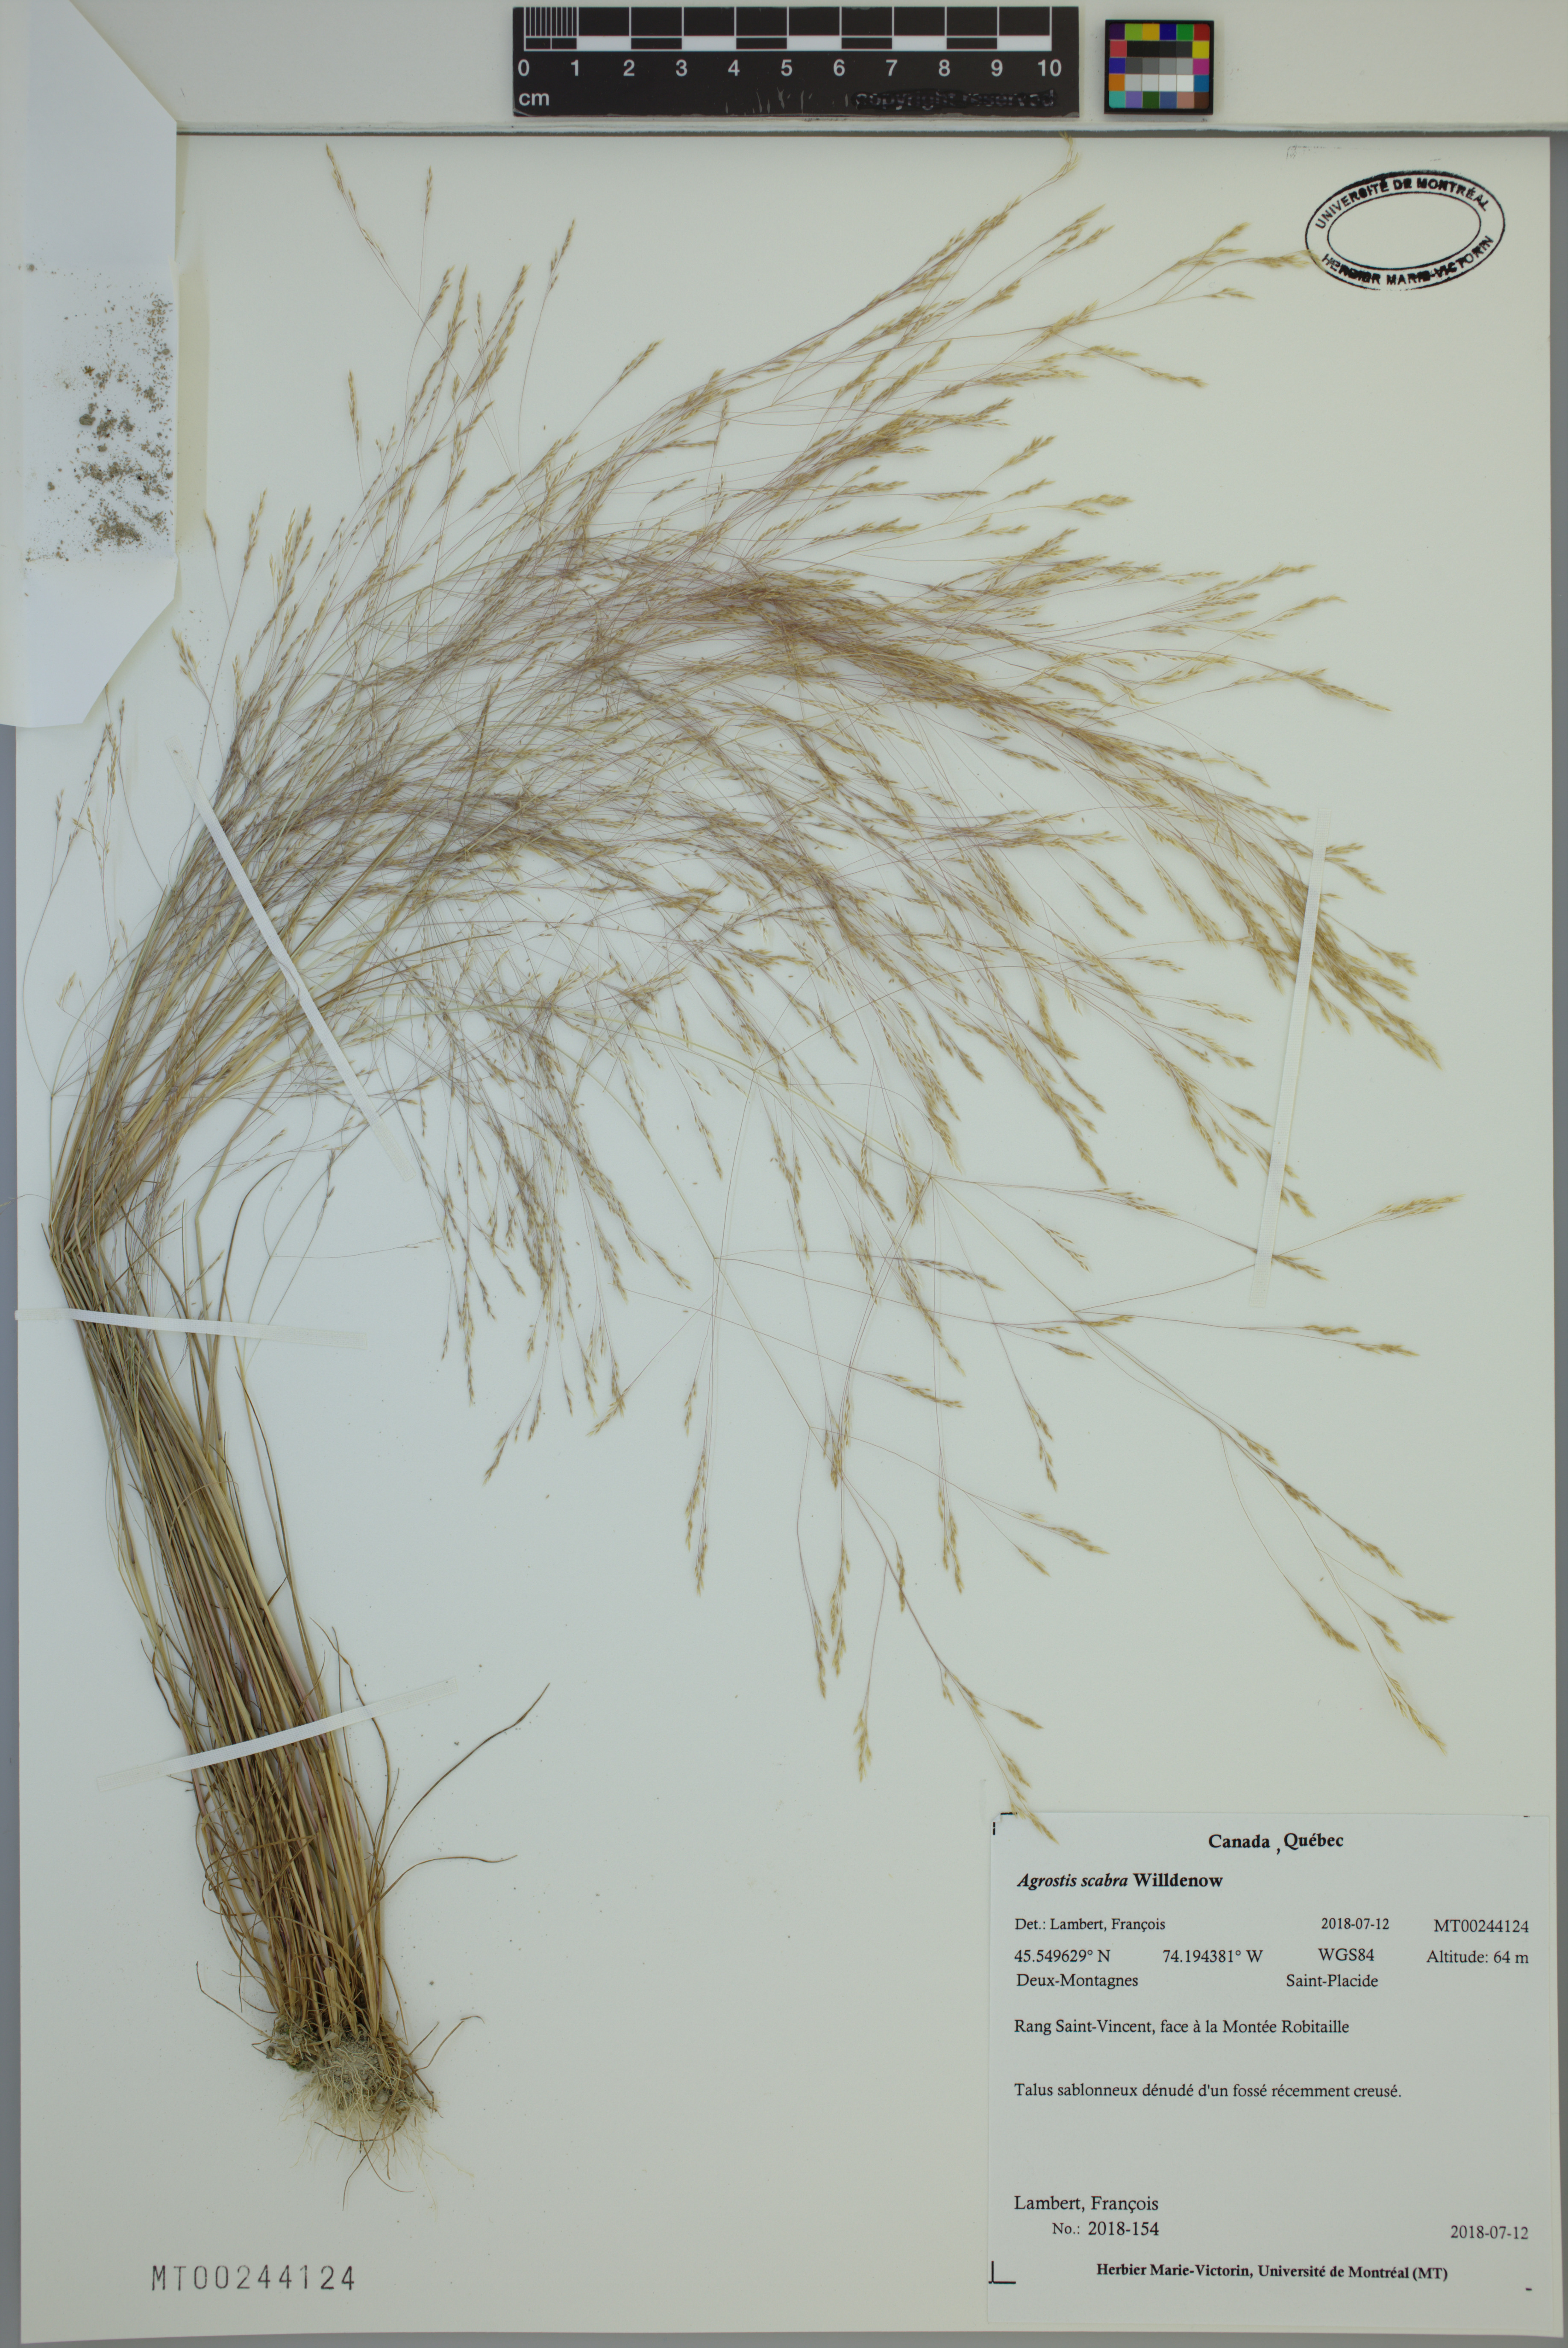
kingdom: Plantae
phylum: Tracheophyta
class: Liliopsida
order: Poales
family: Poaceae
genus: Agrostis
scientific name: Agrostis scabra
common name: Rough bent
